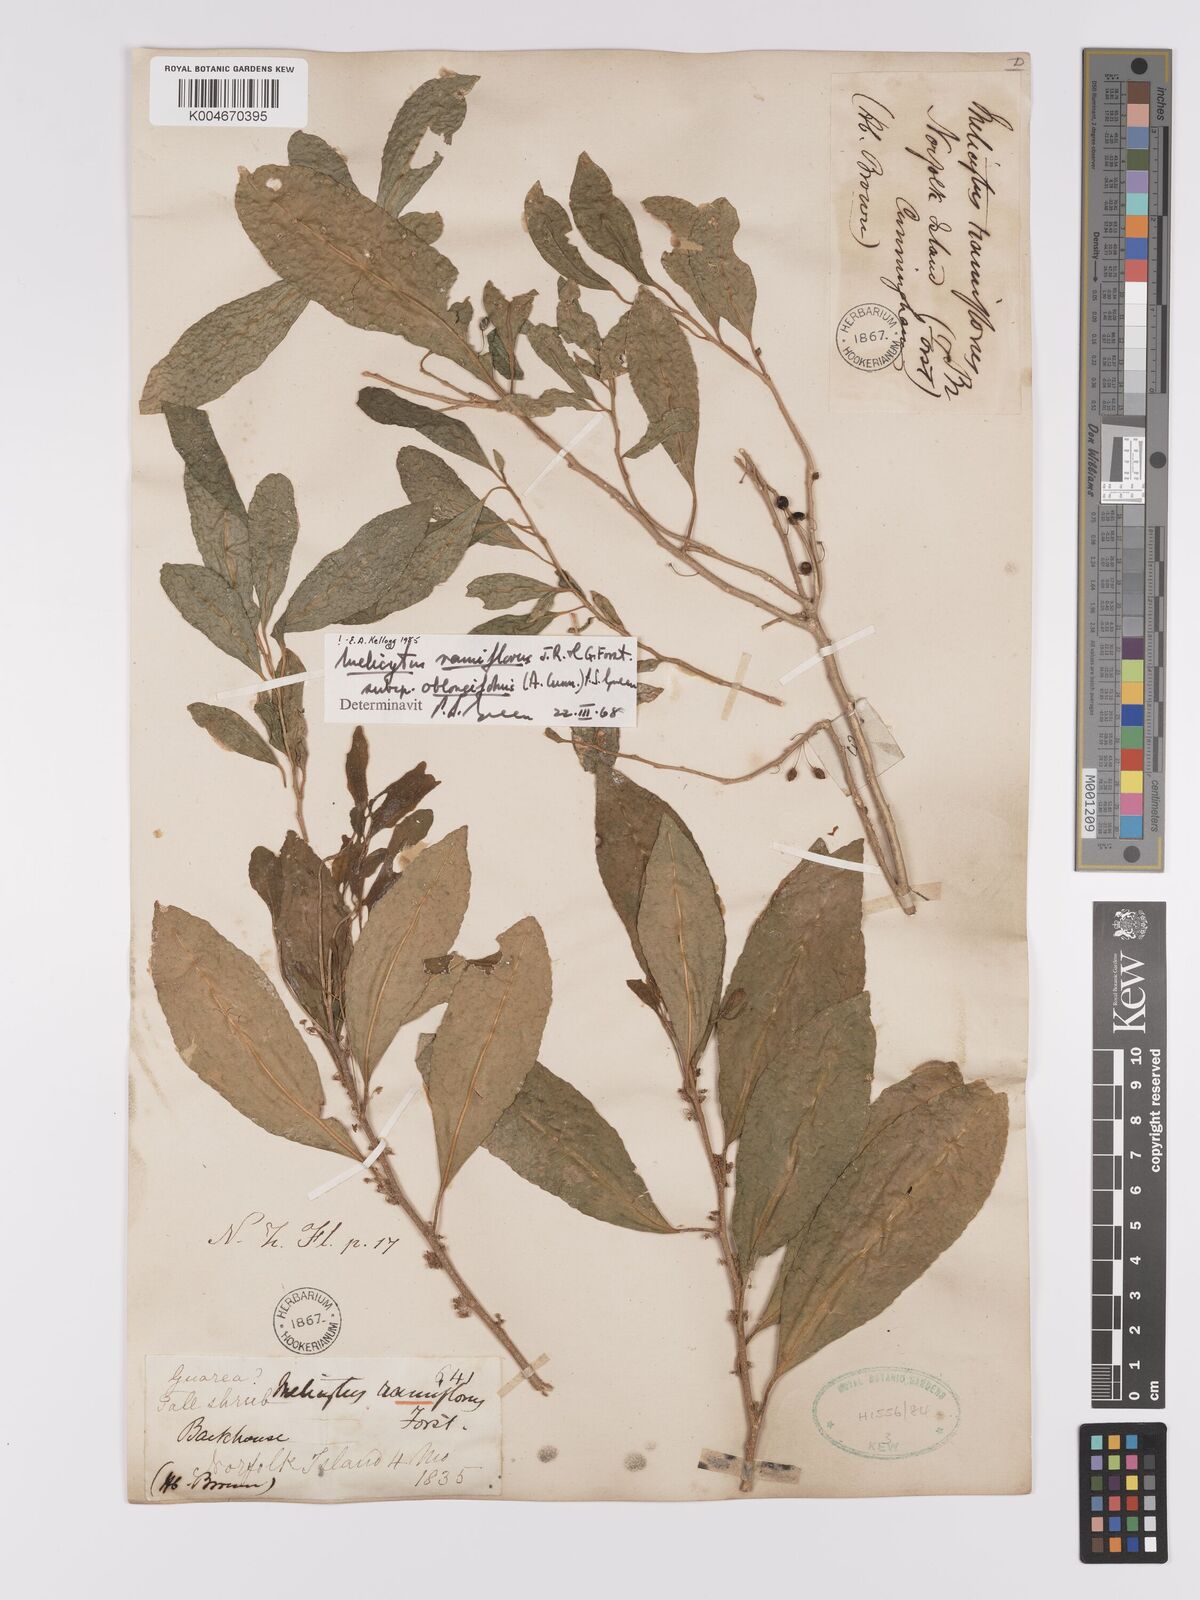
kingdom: Plantae
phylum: Tracheophyta
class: Magnoliopsida
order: Malpighiales
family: Violaceae
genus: Melicytus
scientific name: Melicytus ramiflorus
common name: Mahoe
